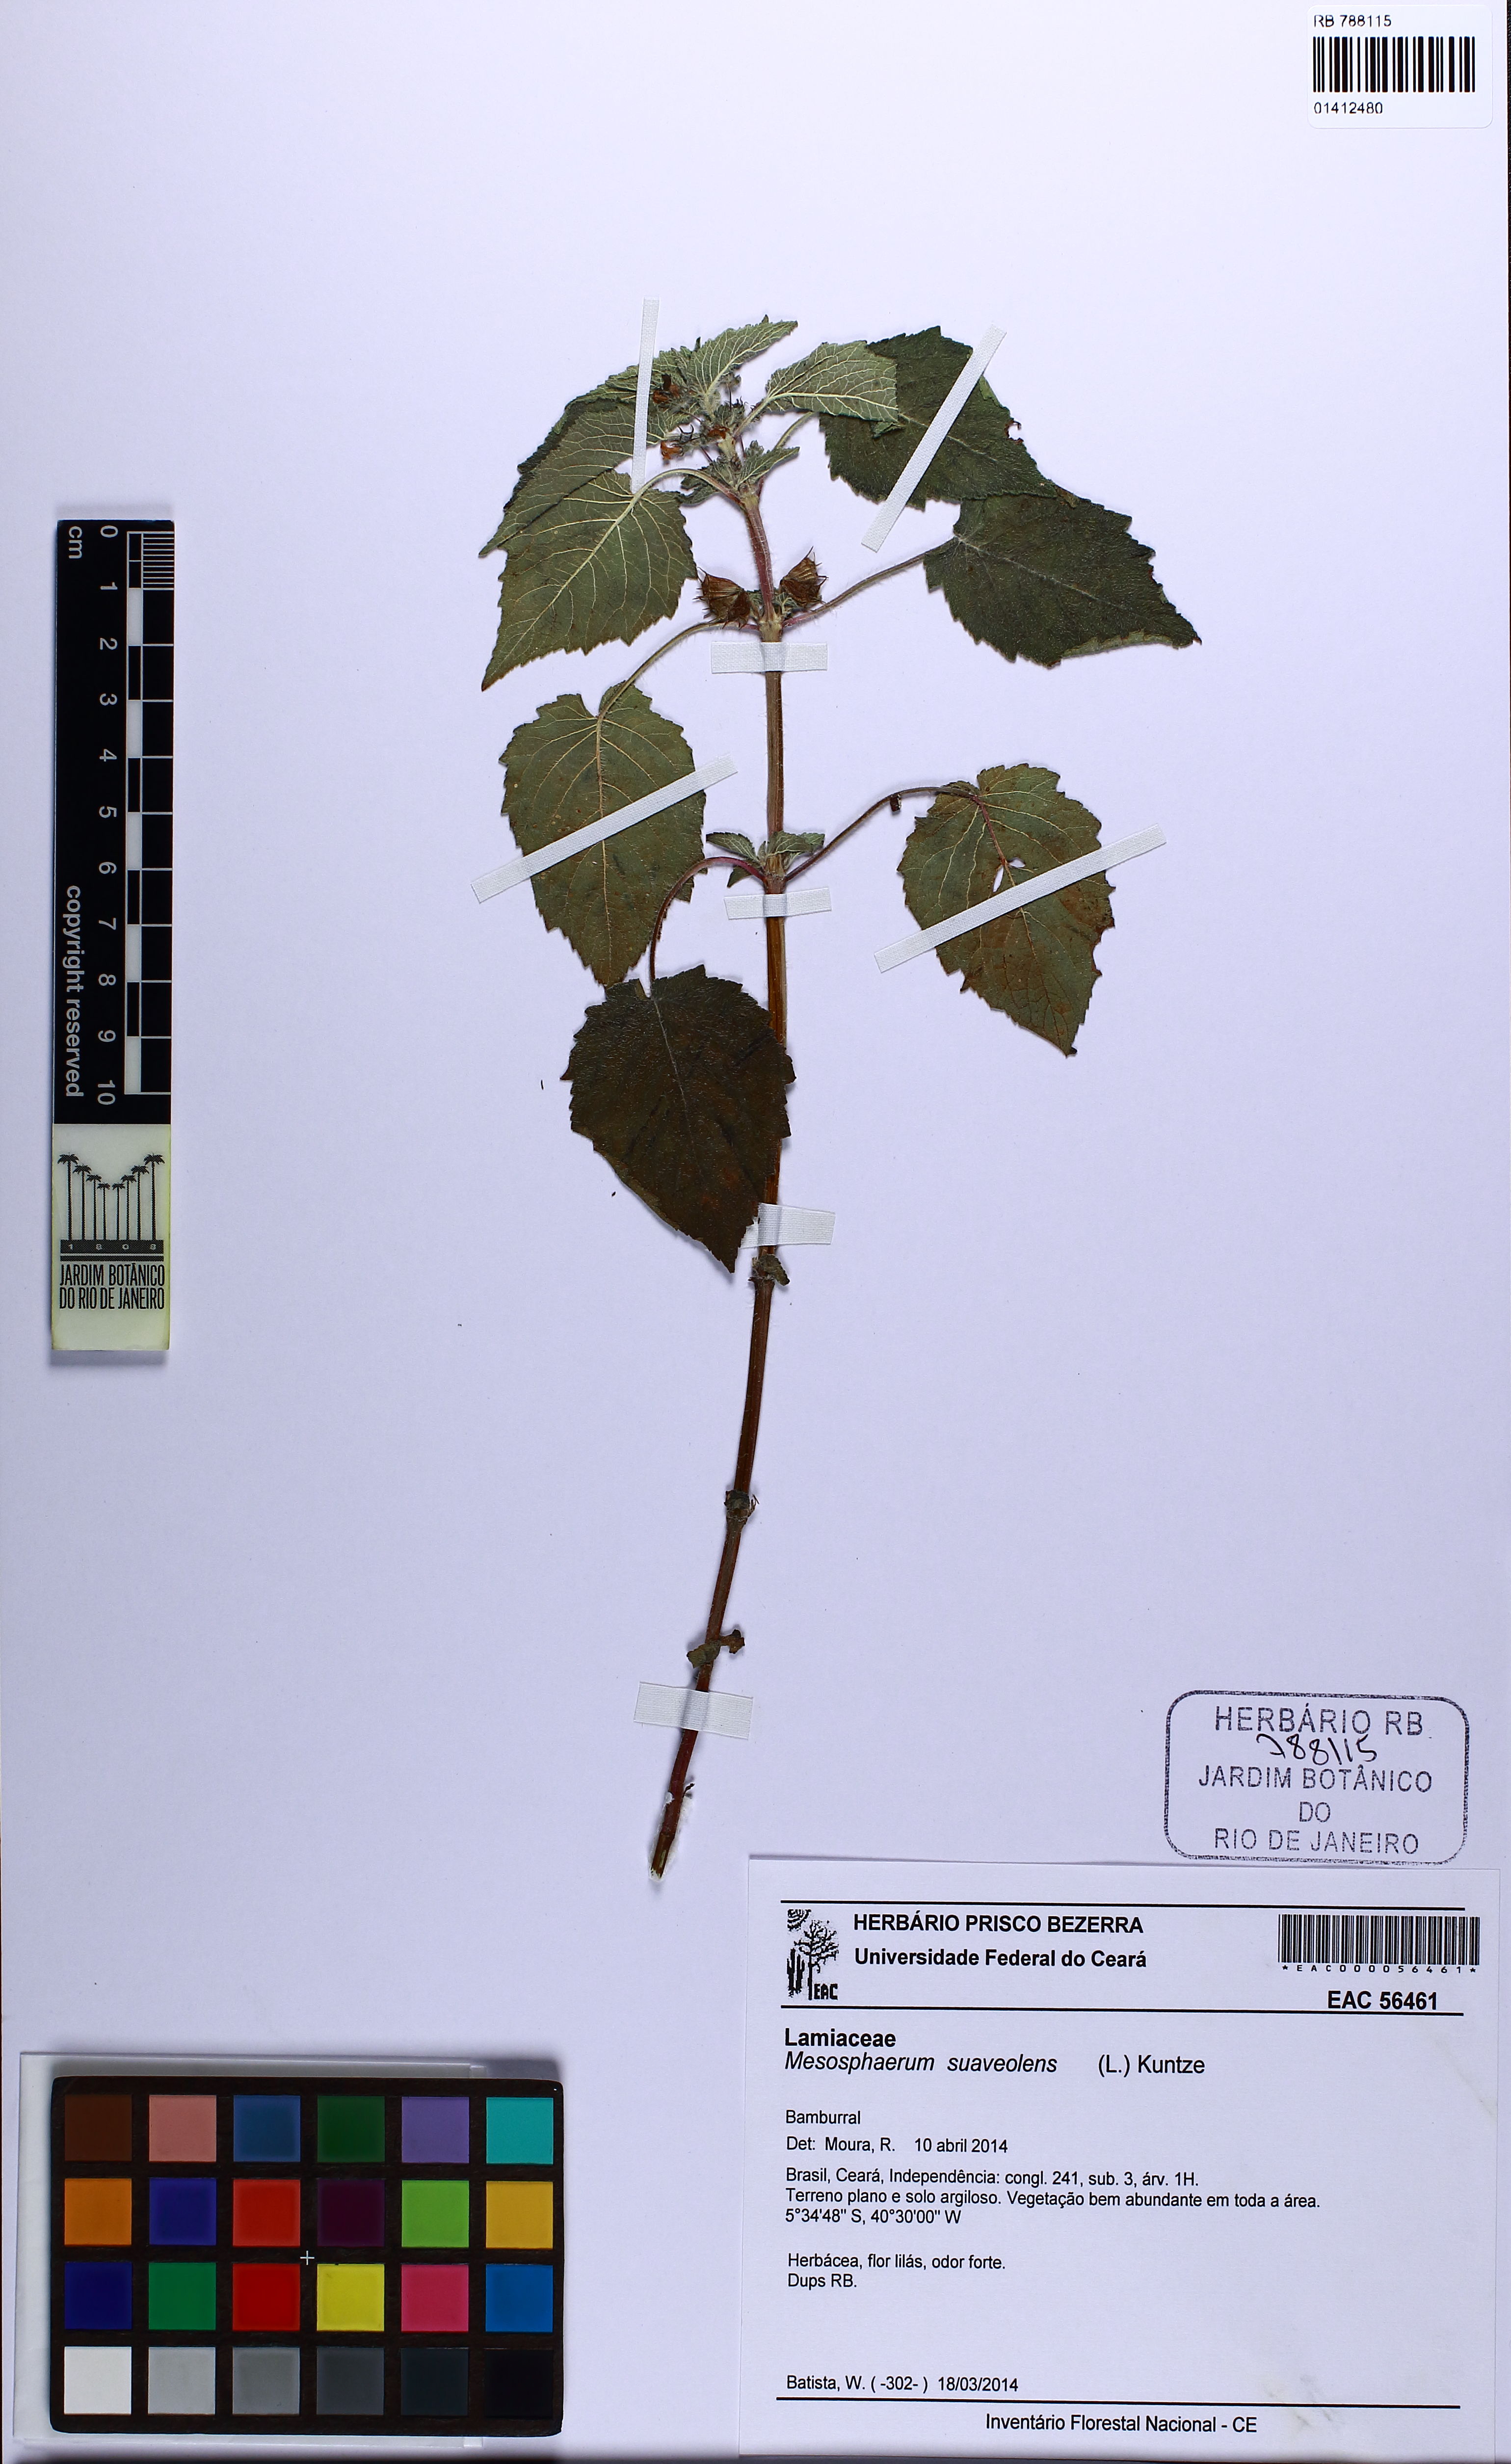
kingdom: Plantae
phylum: Tracheophyta
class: Magnoliopsida
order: Lamiales
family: Lamiaceae
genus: Mesosphaerum
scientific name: Mesosphaerum suaveolens
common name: Pignut
